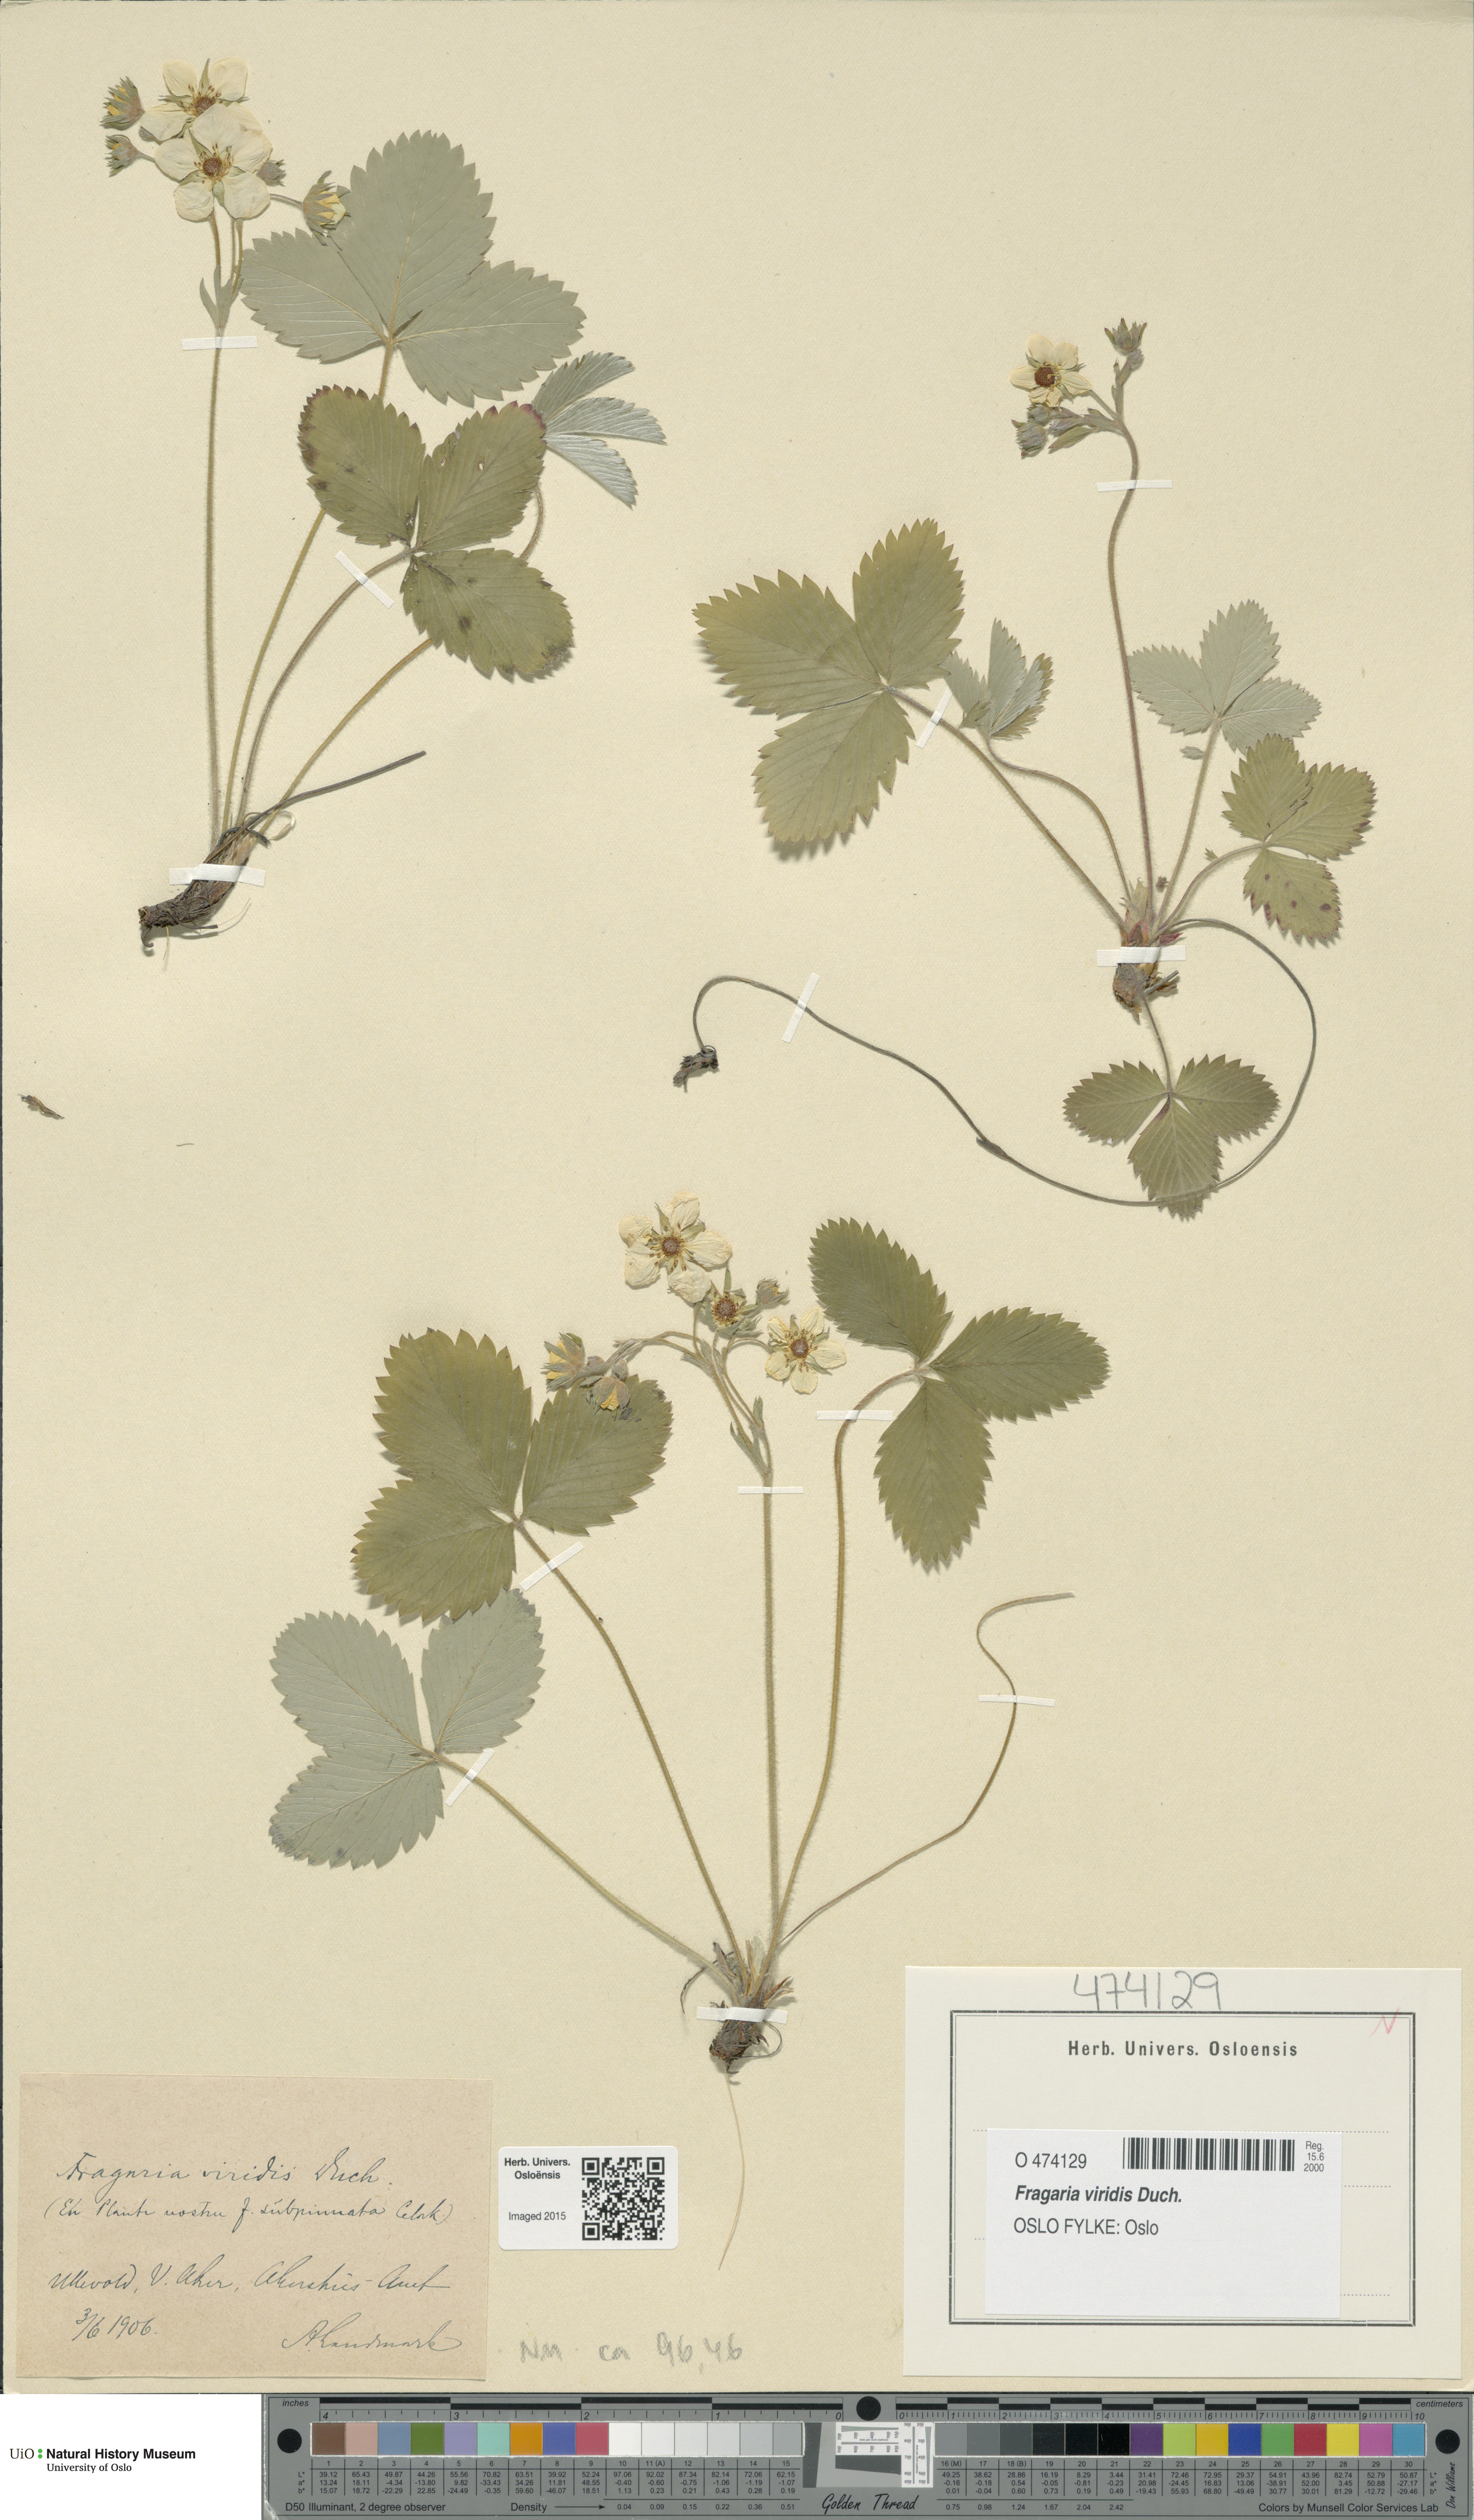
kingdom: Plantae
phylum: Tracheophyta
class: Magnoliopsida
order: Rosales
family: Rosaceae
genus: Fragaria
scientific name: Fragaria viridis
